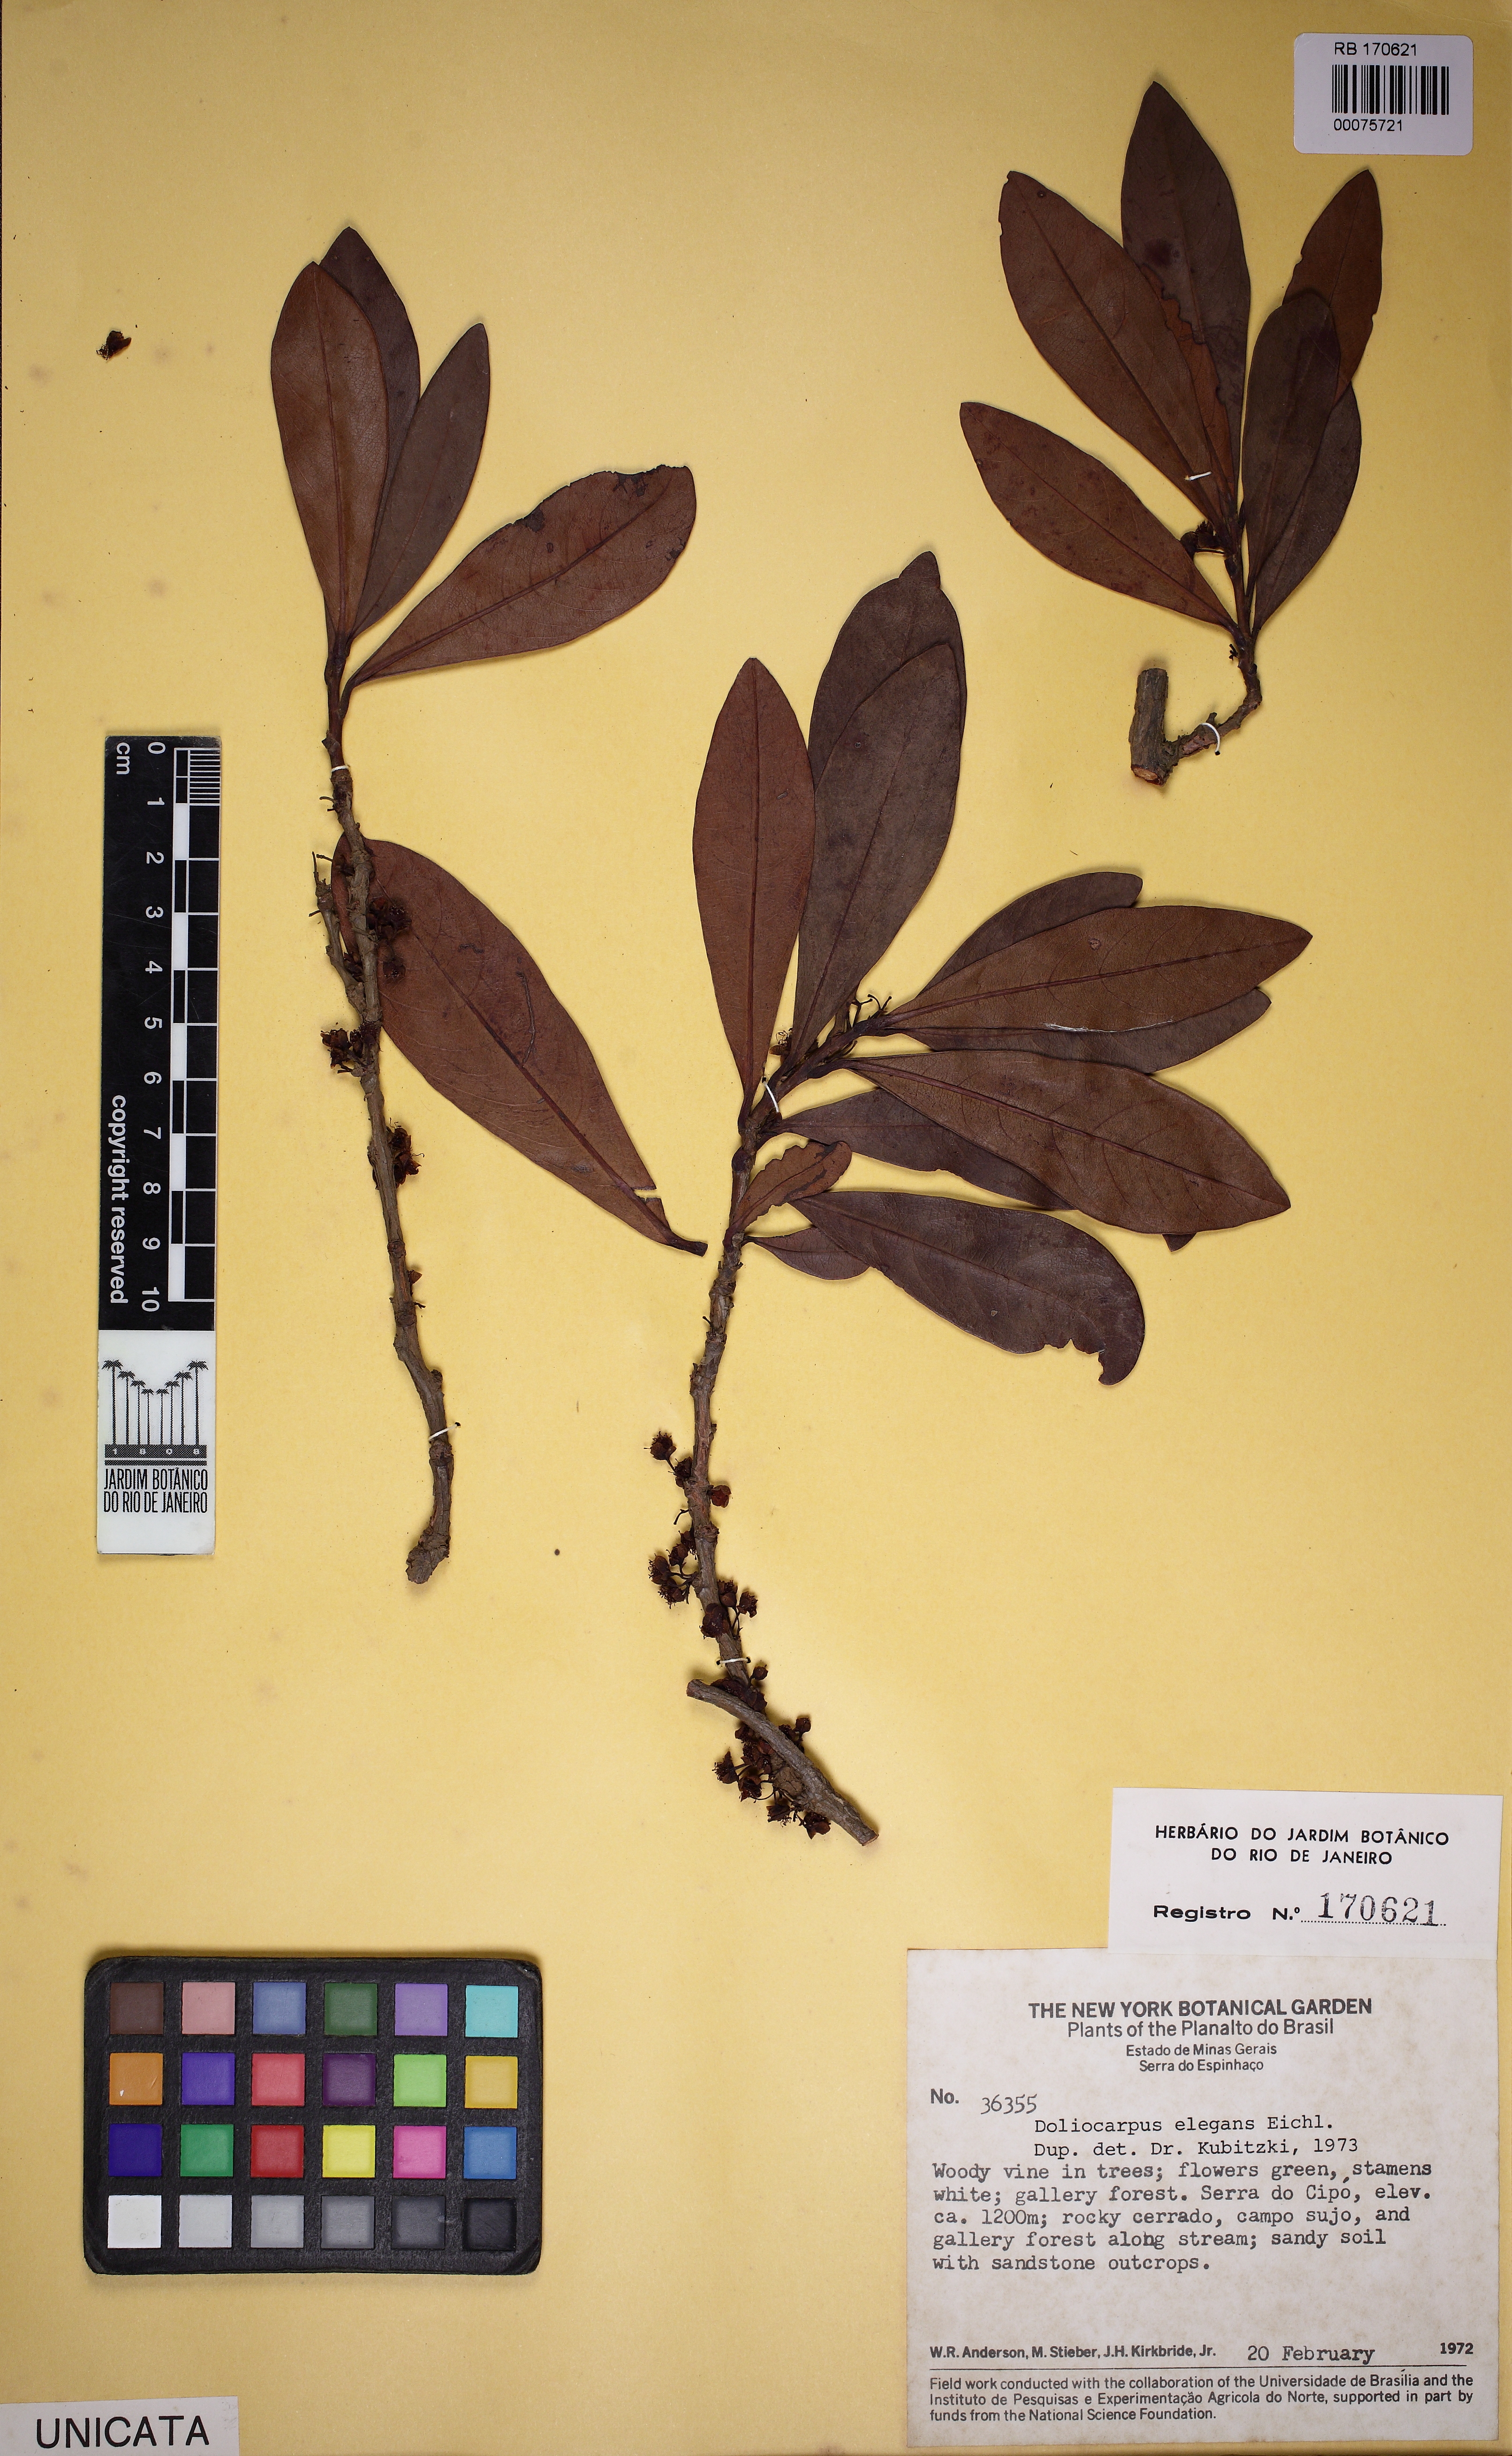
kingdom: Plantae
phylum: Tracheophyta
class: Magnoliopsida
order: Dilleniales
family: Dilleniaceae
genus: Doliocarpus
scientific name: Doliocarpus elegans
